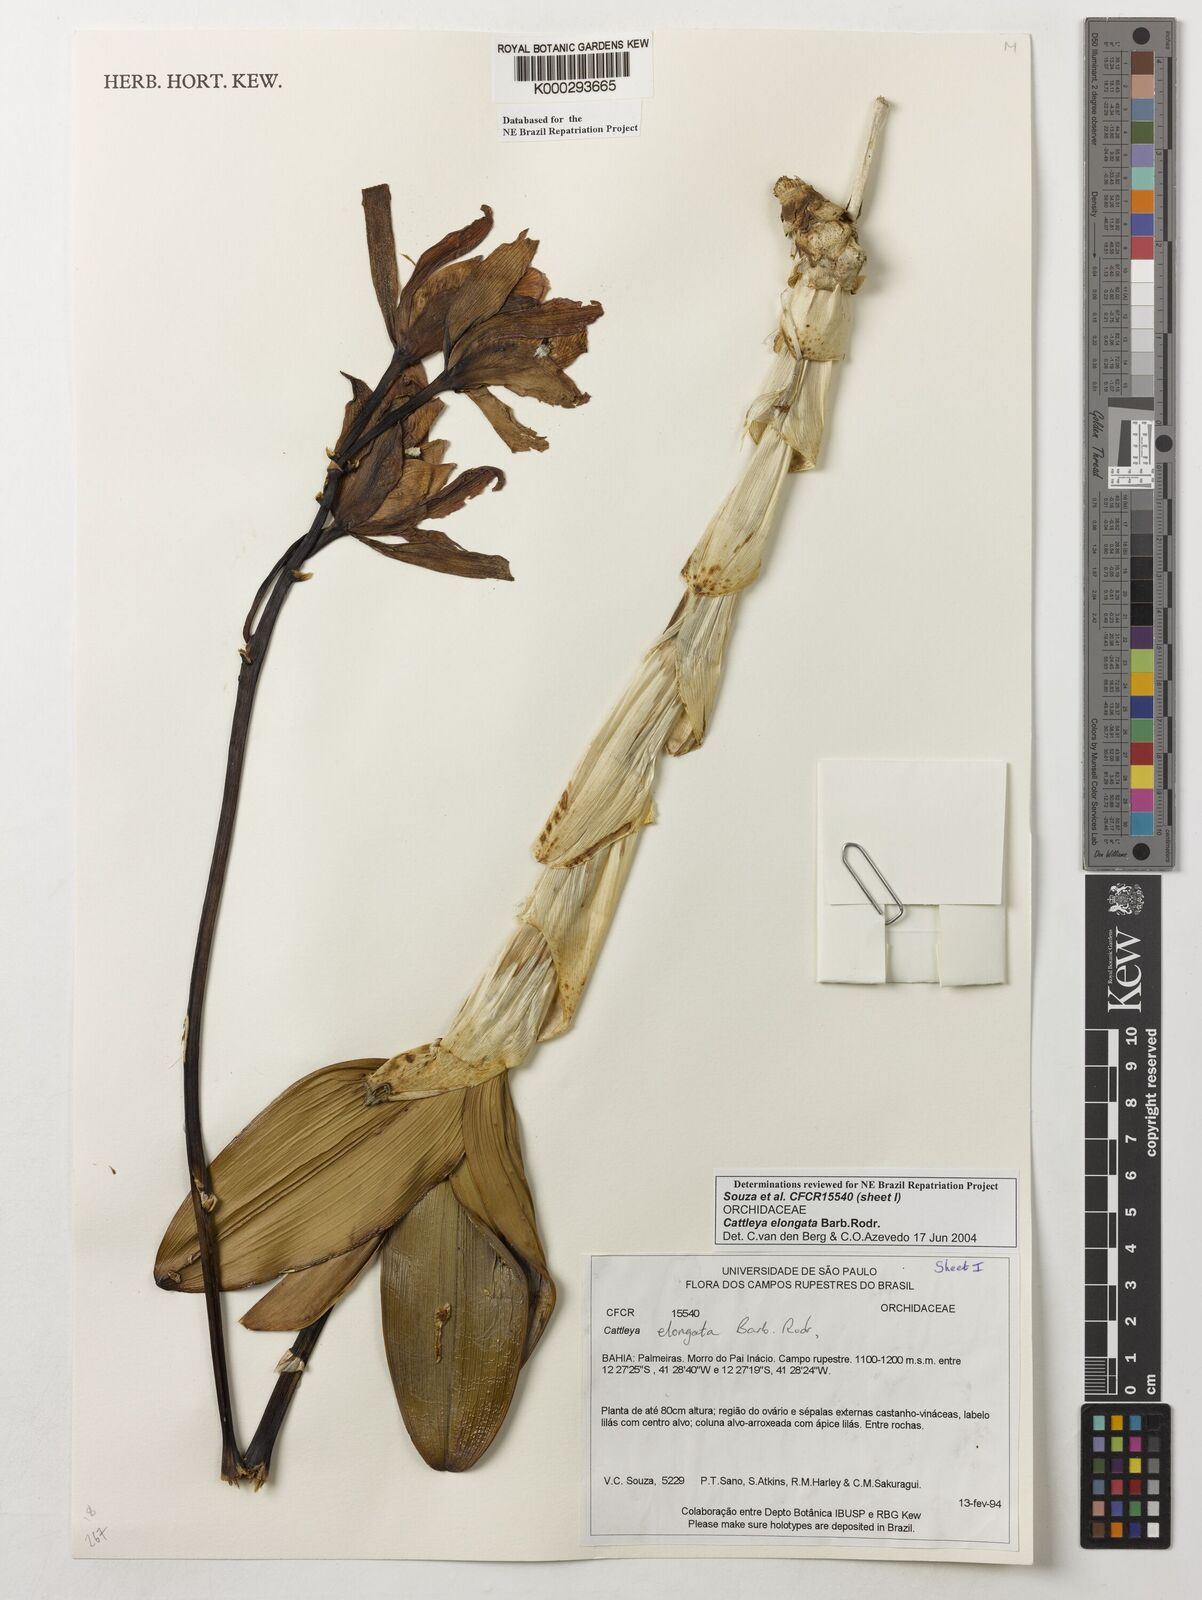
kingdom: Plantae
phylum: Tracheophyta
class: Liliopsida
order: Asparagales
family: Orchidaceae
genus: Cattleya
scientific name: Cattleya elongata
